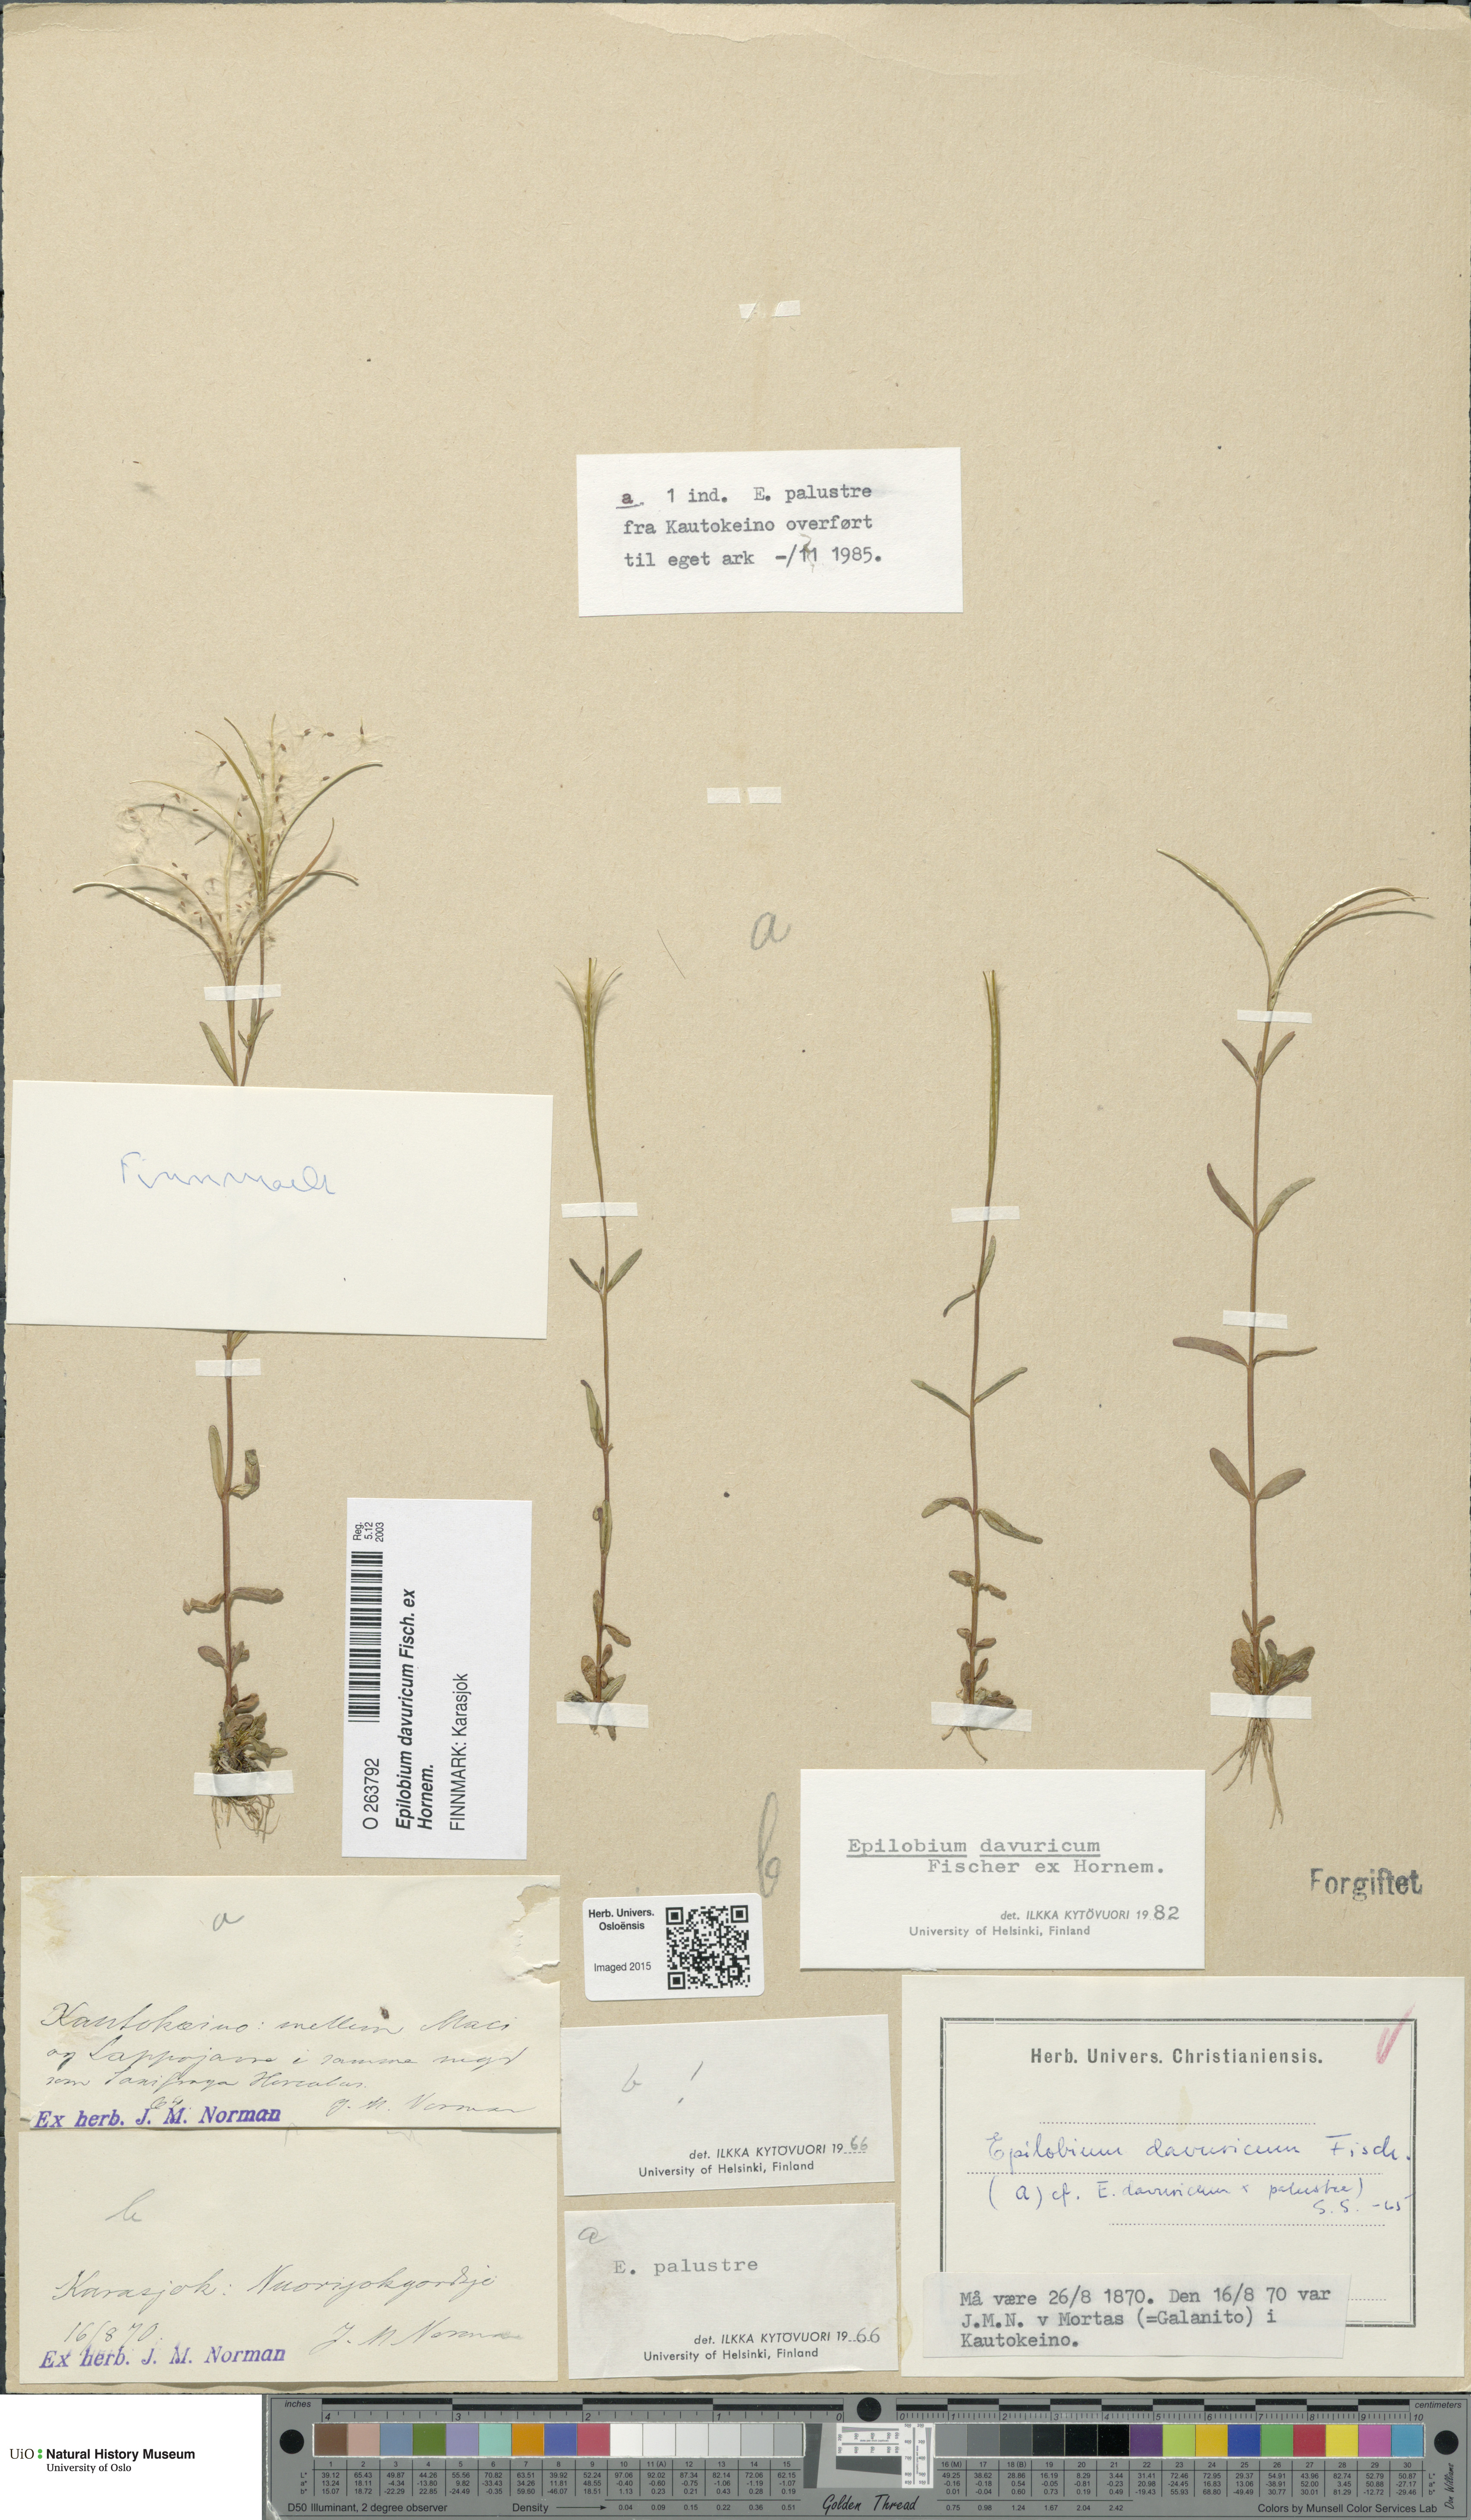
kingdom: Plantae
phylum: Tracheophyta
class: Magnoliopsida
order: Myrtales
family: Onagraceae
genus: Epilobium
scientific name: Epilobium davuricum
